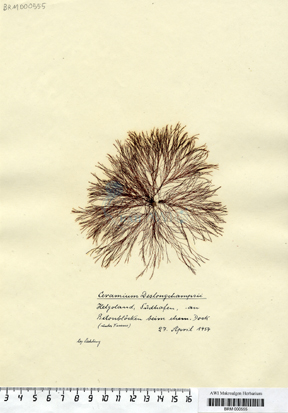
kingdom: Plantae
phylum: Rhodophyta
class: Florideophyceae
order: Ceramiales
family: Ceramiaceae
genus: Ceramium
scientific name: Ceramium deslongchampsii
